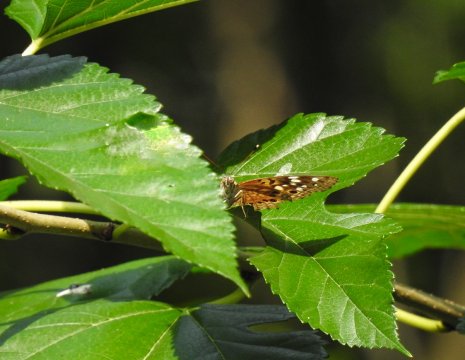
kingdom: Animalia
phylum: Arthropoda
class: Insecta
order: Lepidoptera
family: Nymphalidae
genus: Asterocampa
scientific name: Asterocampa celtis
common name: Hackberry Emperor
